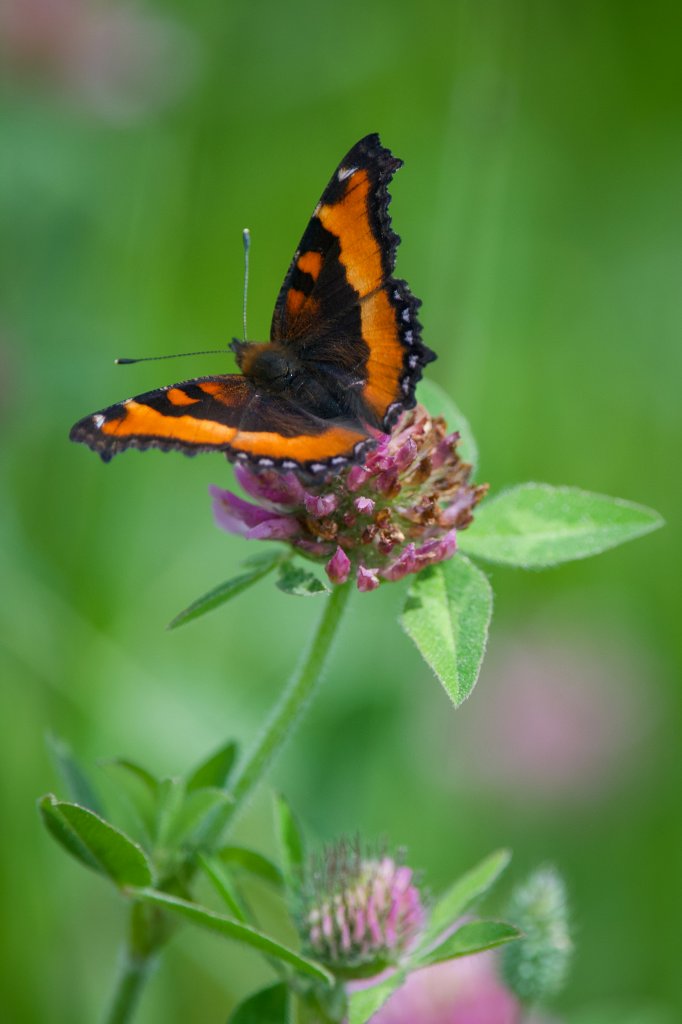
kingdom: Animalia
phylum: Arthropoda
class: Insecta
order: Lepidoptera
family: Nymphalidae
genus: Aglais
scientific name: Aglais milberti
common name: Milbert's Tortoiseshell
